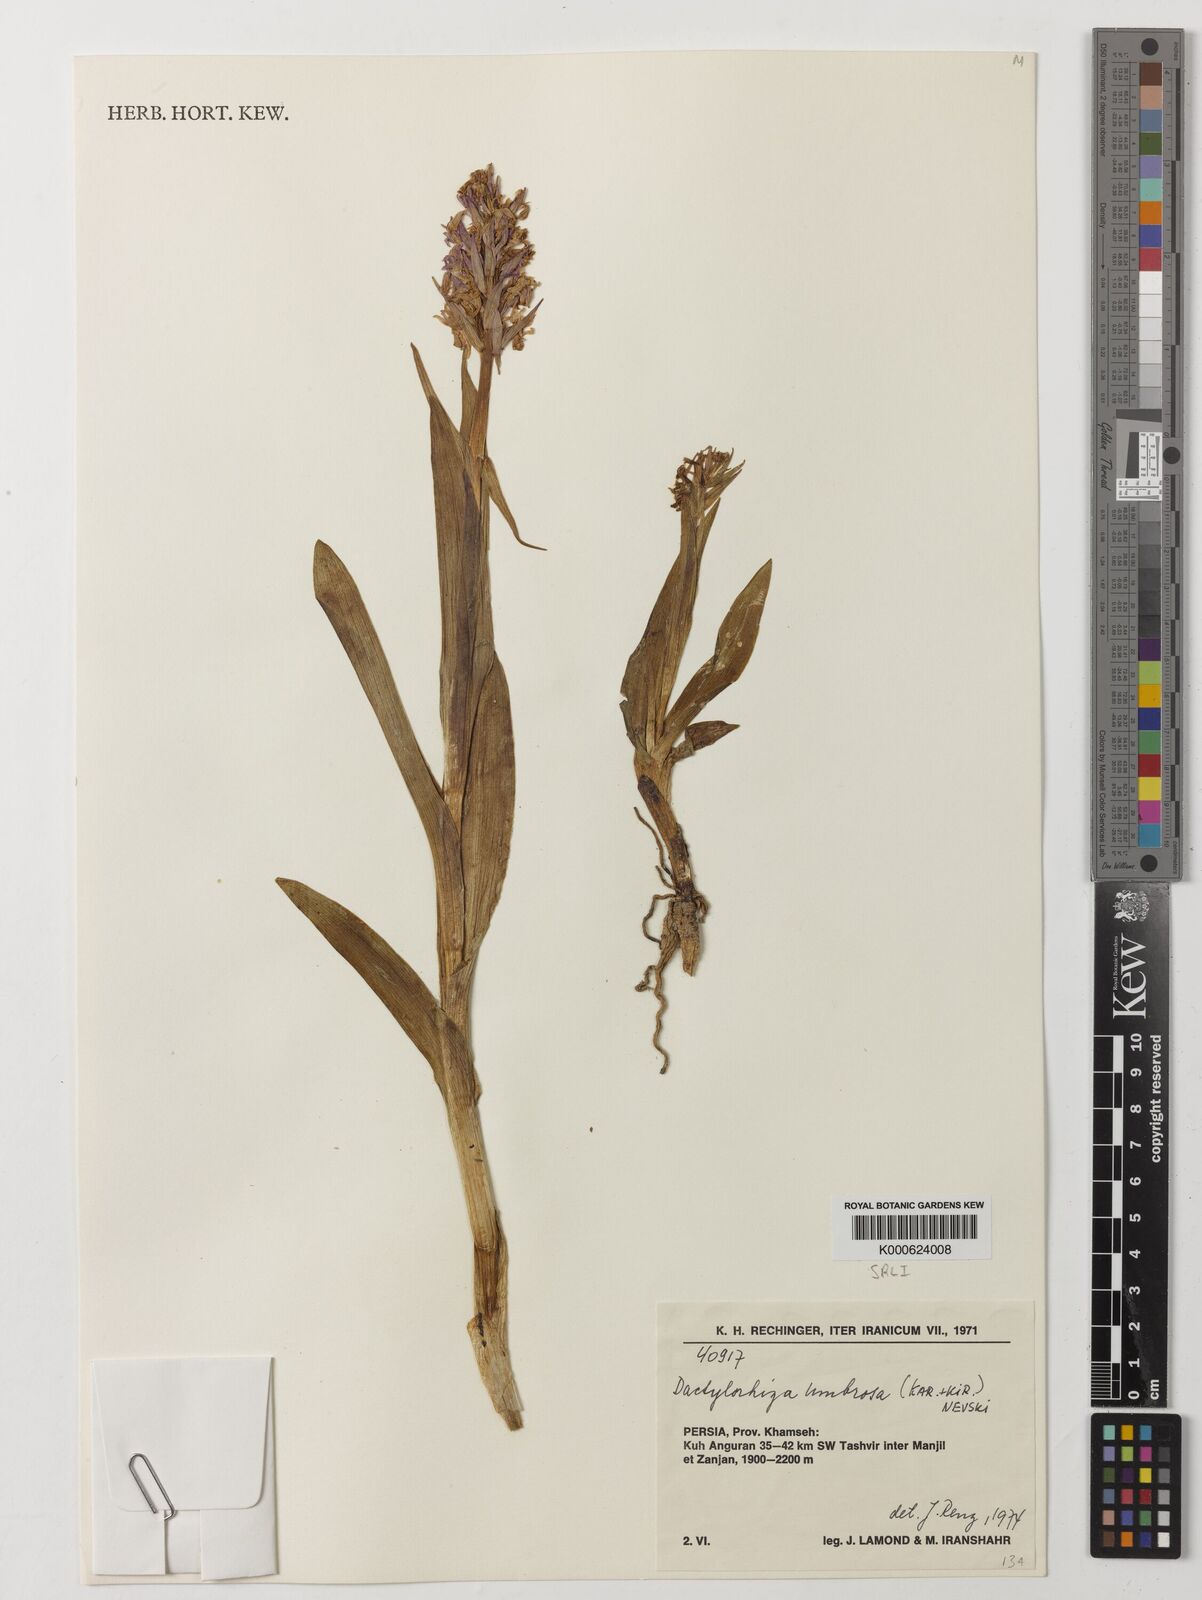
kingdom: Plantae
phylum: Tracheophyta
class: Liliopsida
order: Asparagales
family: Orchidaceae
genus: Dactylorhiza
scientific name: Dactylorhiza
